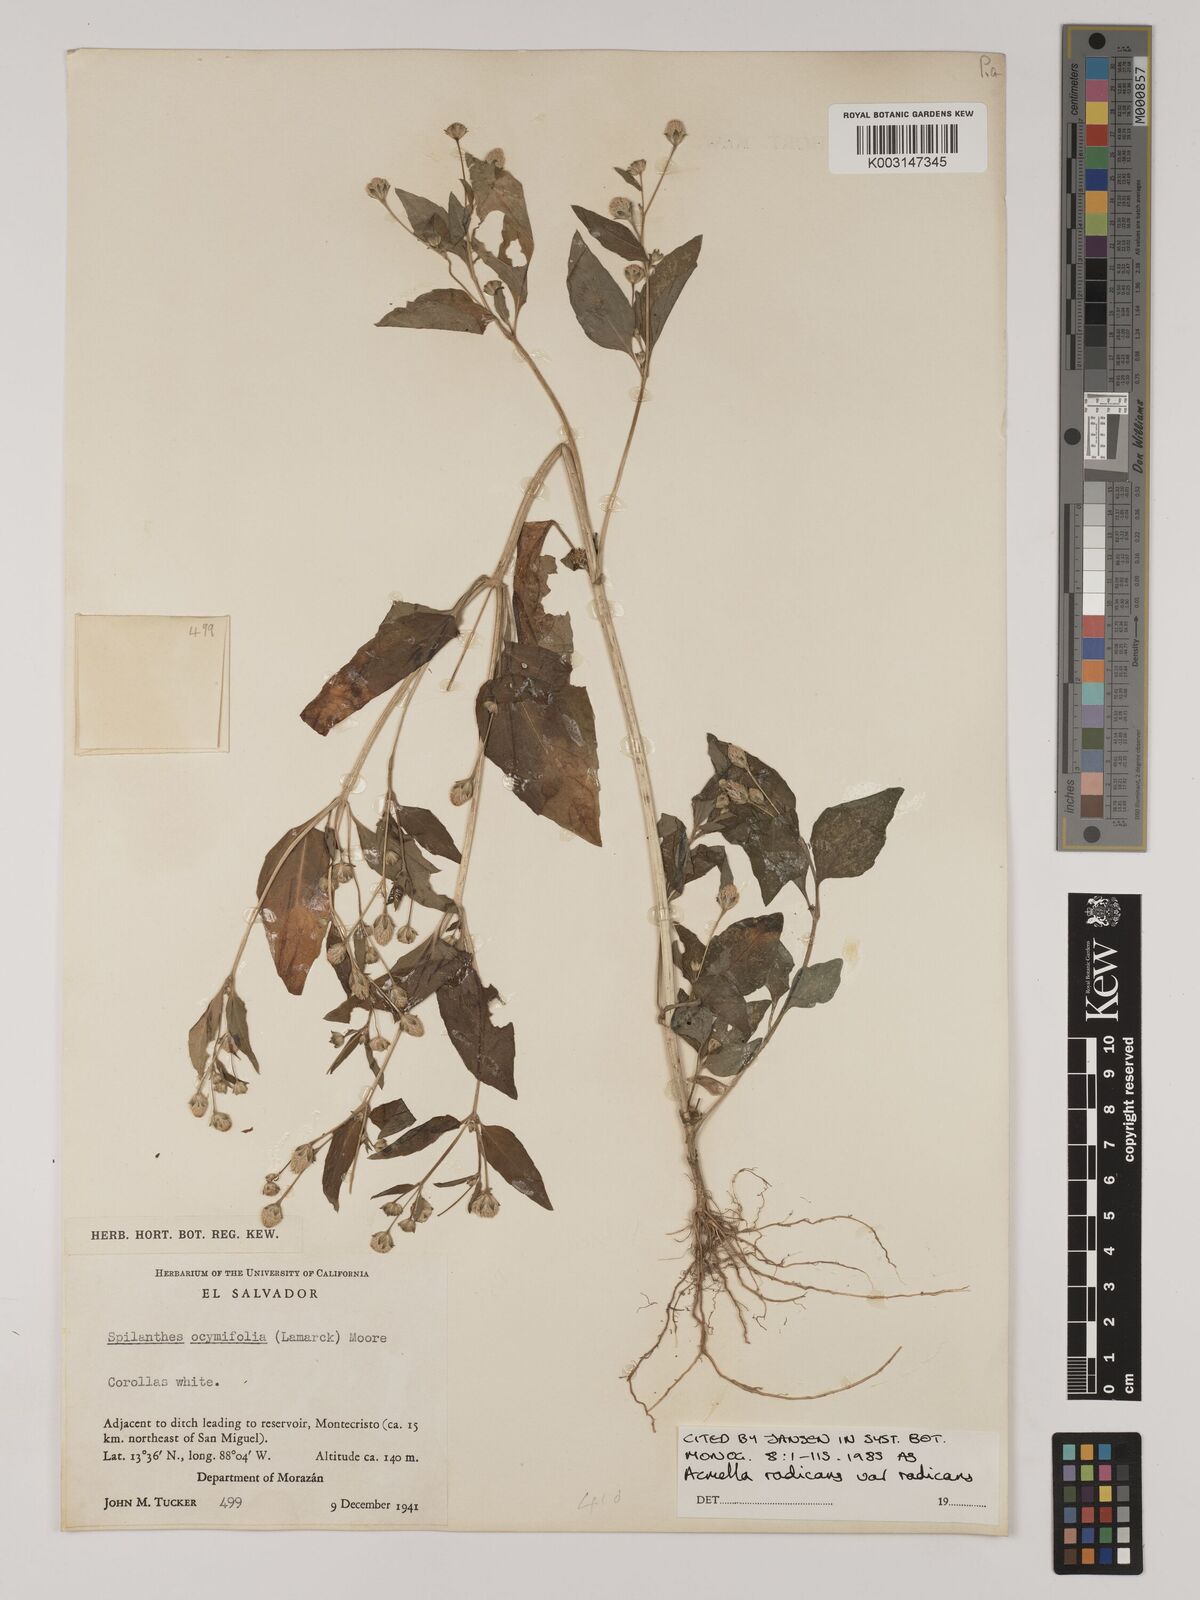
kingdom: Plantae
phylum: Tracheophyta
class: Magnoliopsida
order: Asterales
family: Asteraceae
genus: Acmella
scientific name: Acmella radicans
